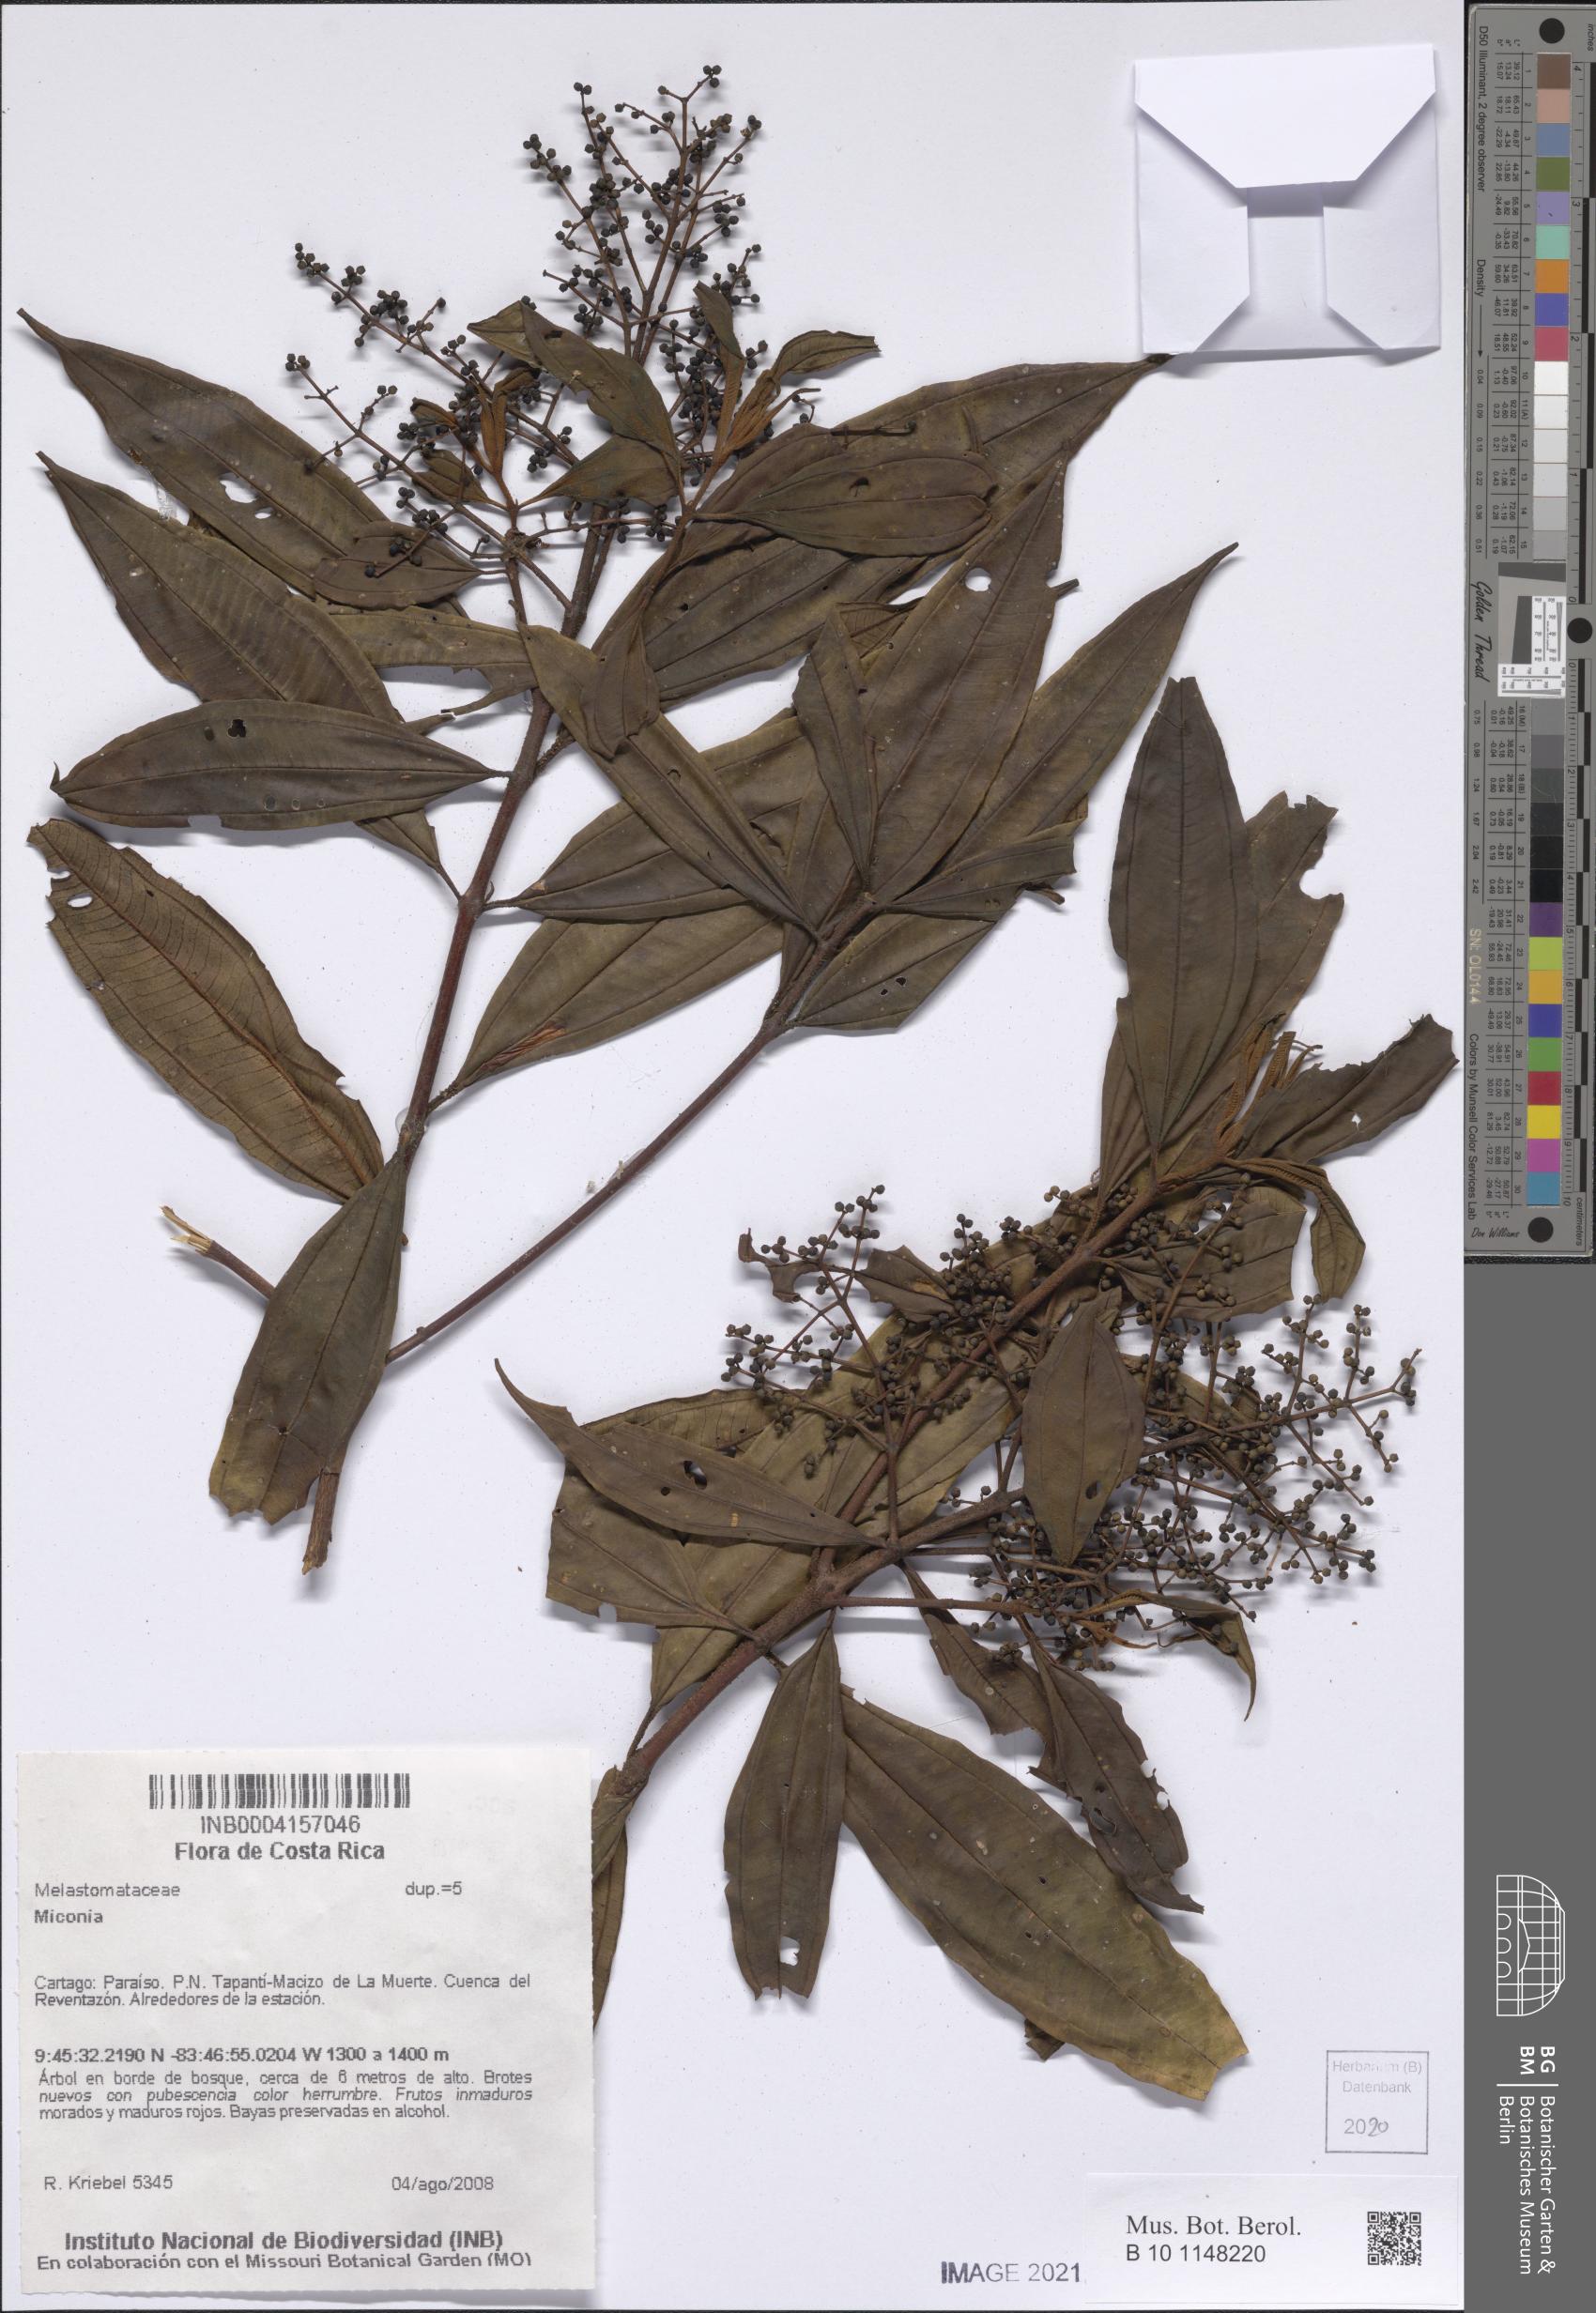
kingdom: Plantae
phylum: Tracheophyta
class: Magnoliopsida
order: Myrtales
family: Melastomataceae
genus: Miconia
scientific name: Miconia
